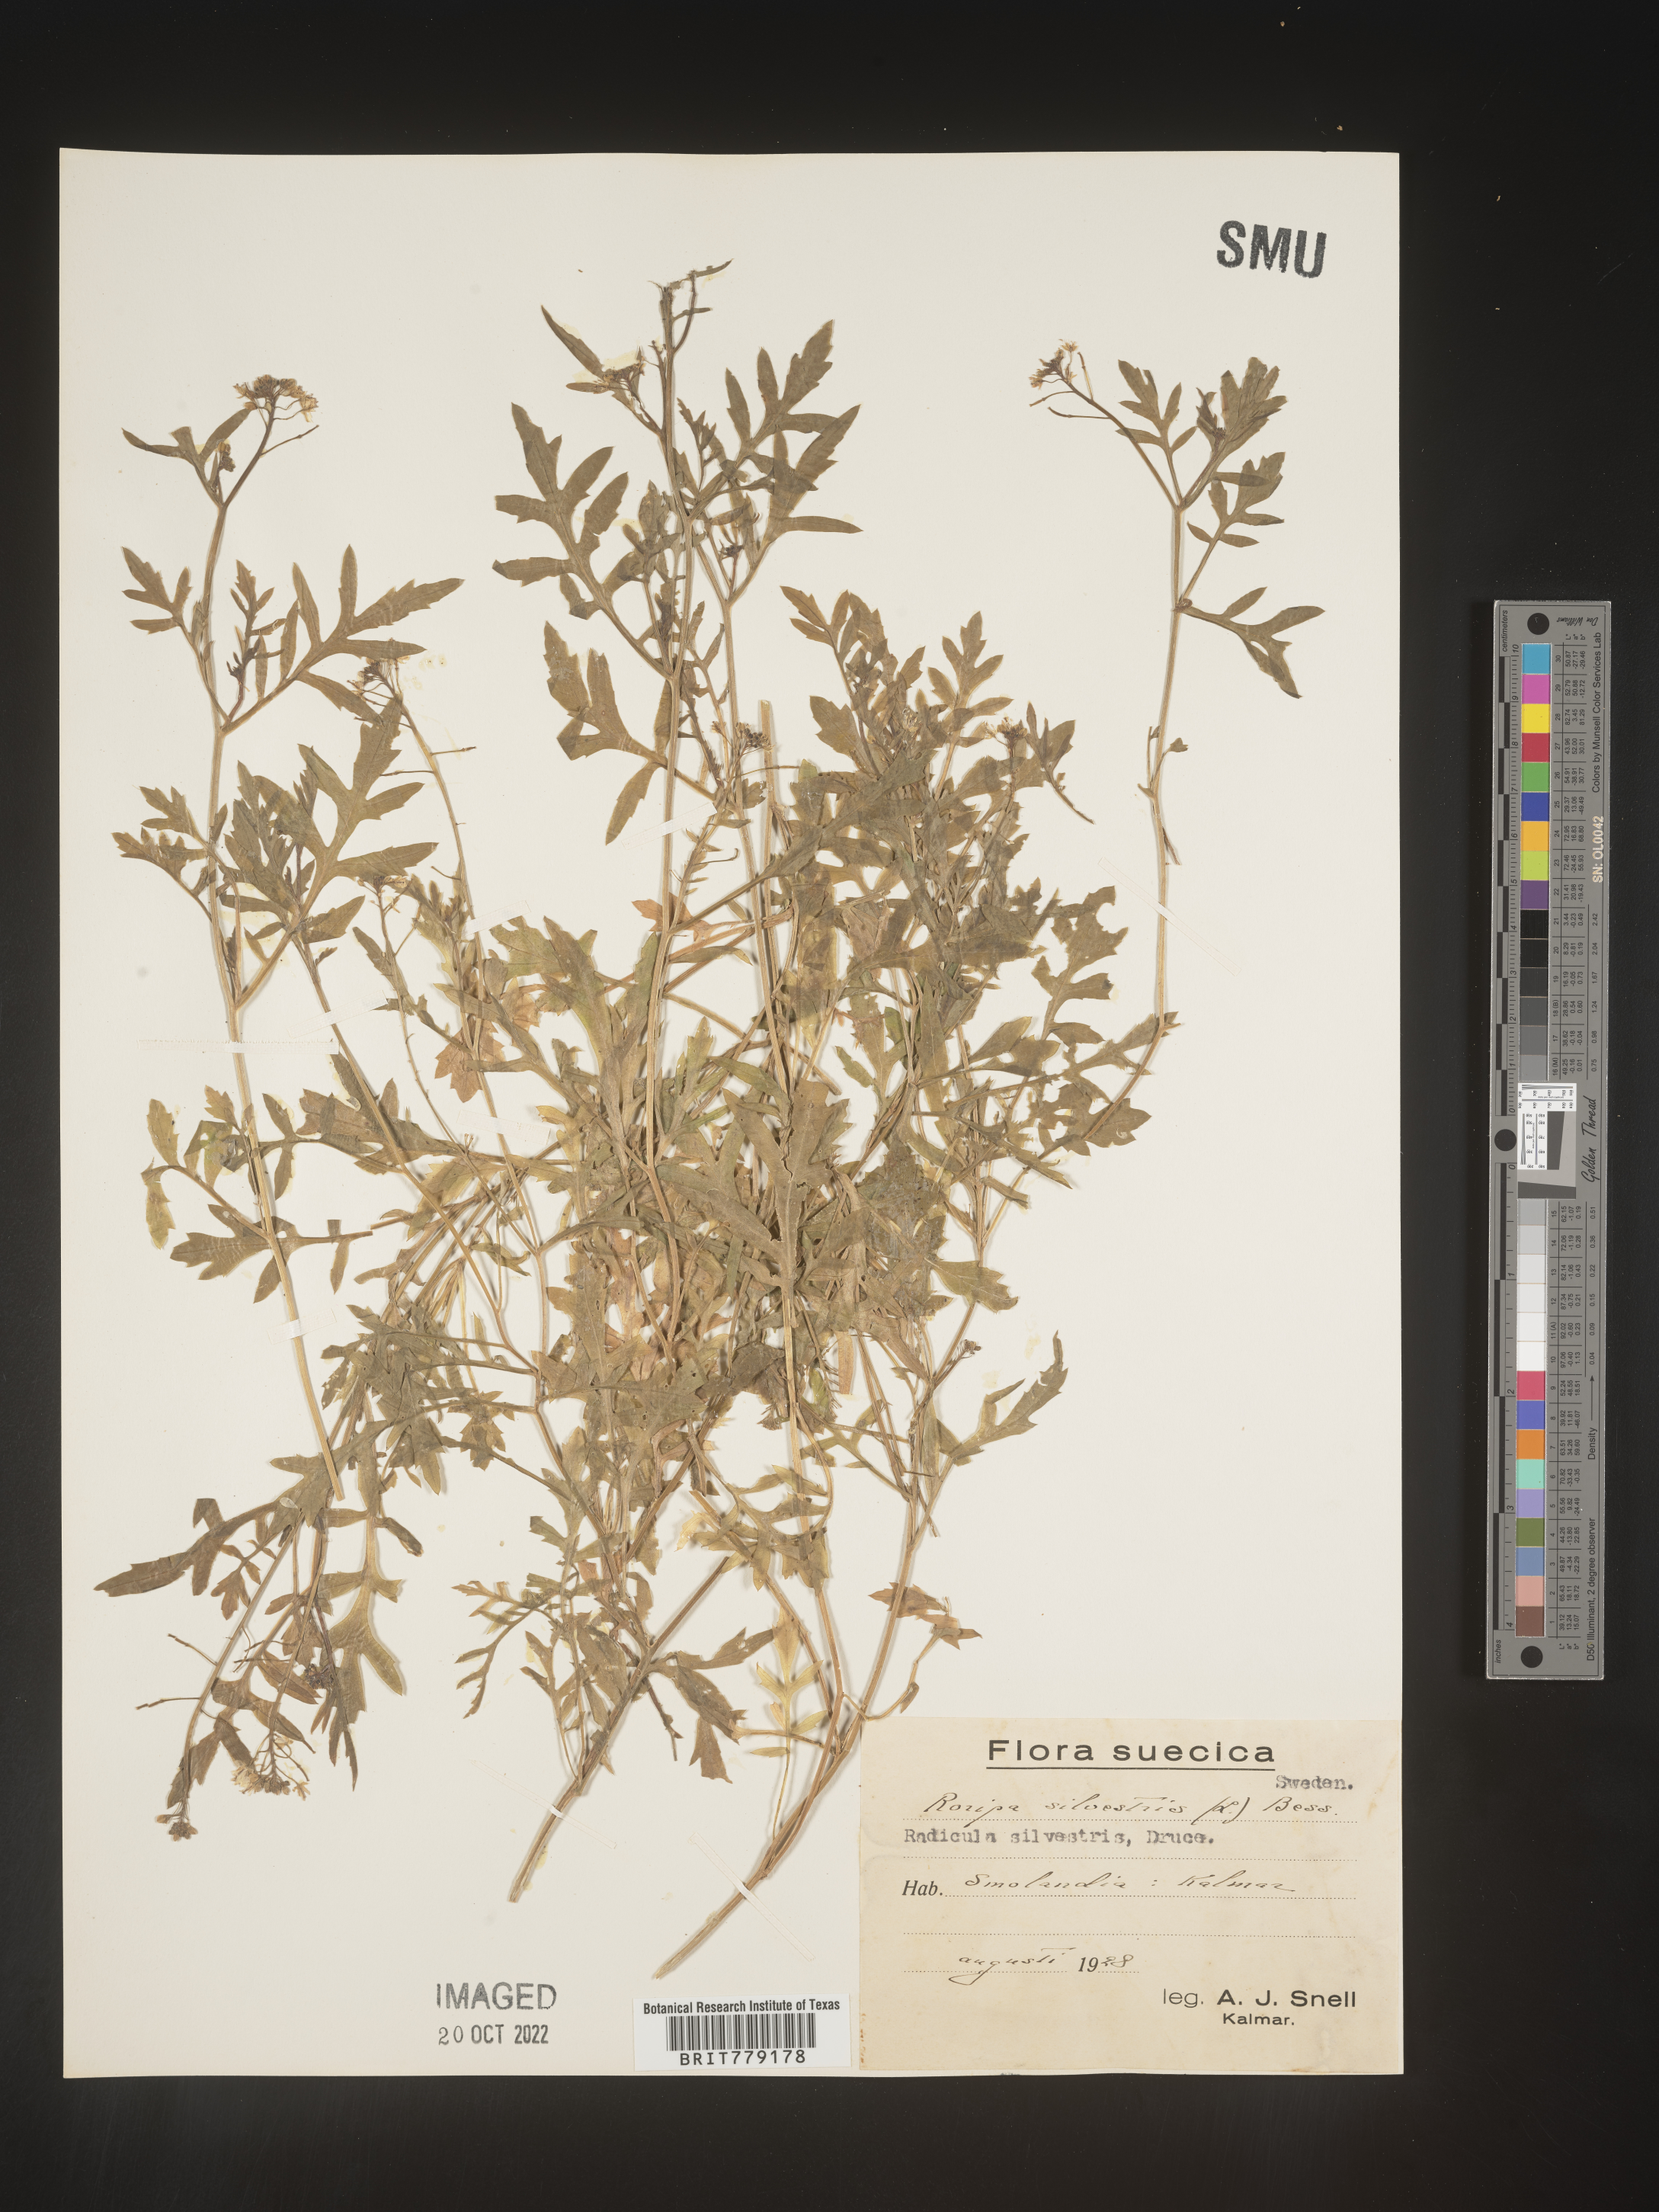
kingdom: Plantae
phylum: Tracheophyta
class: Magnoliopsida
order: Brassicales
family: Brassicaceae
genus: Rorippa
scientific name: Rorippa
